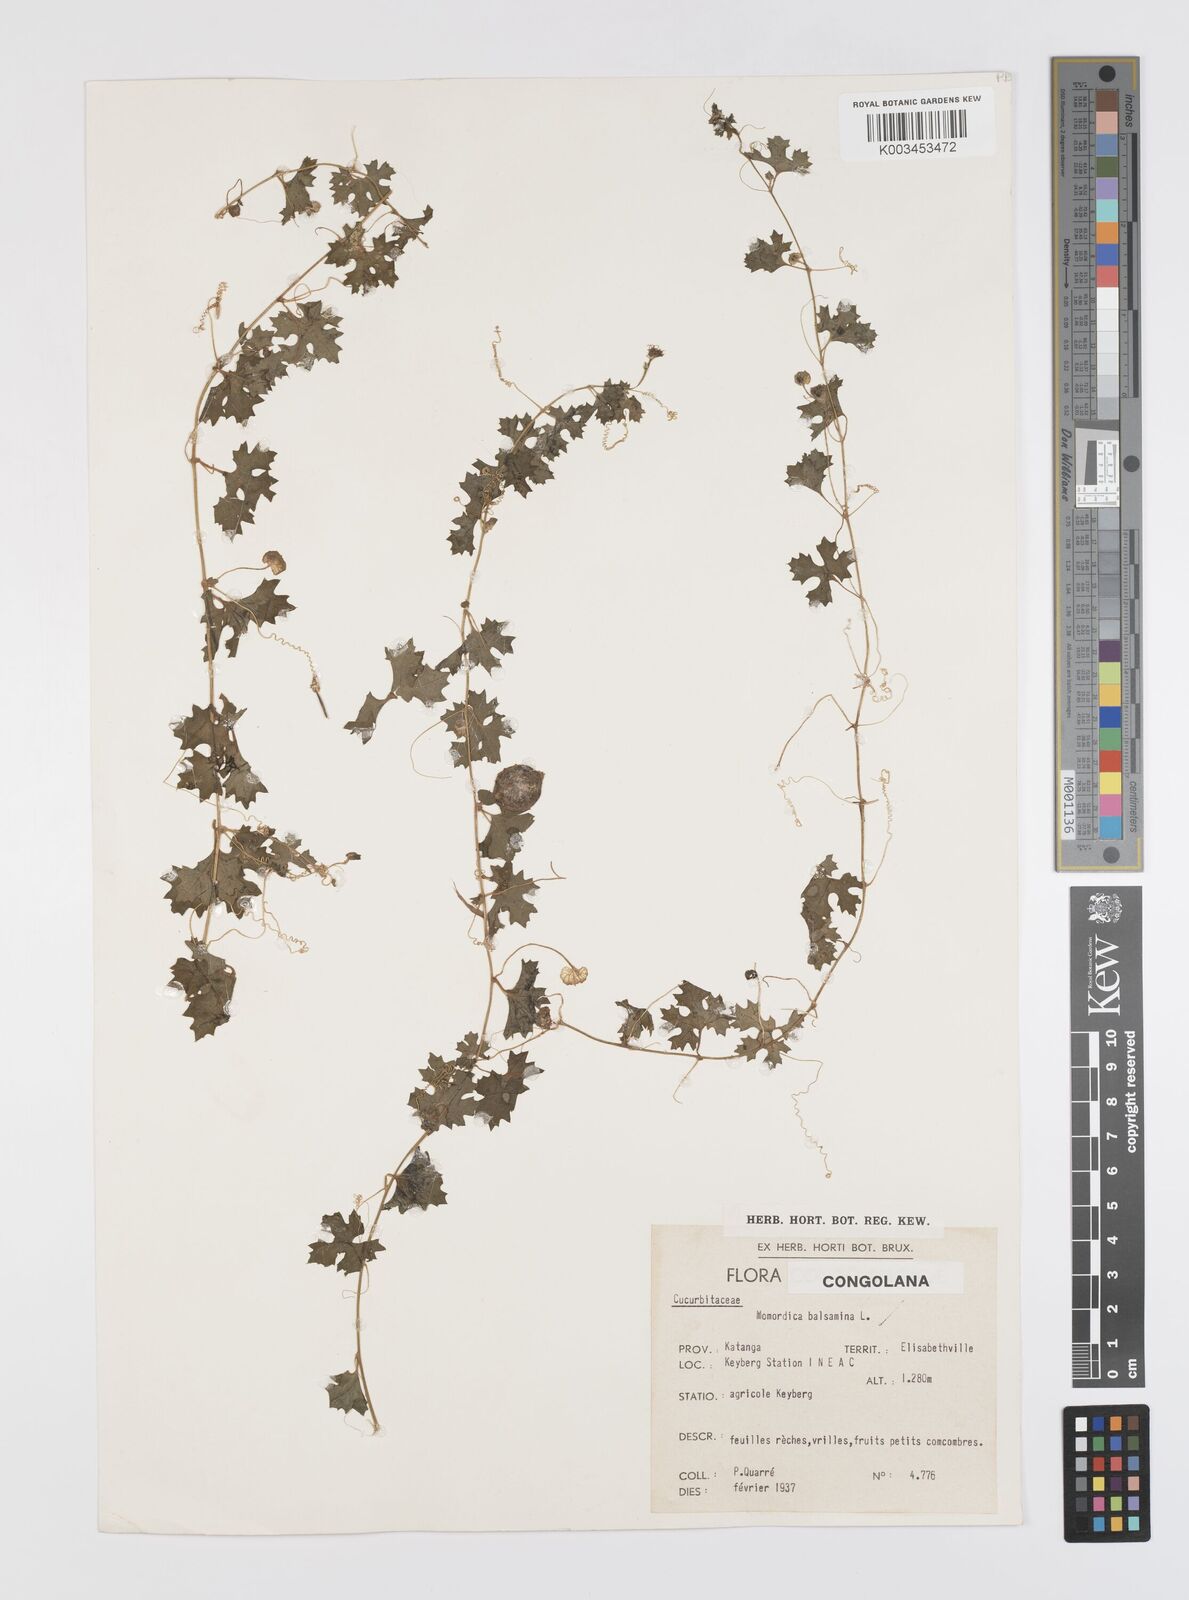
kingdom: Plantae
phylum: Tracheophyta
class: Magnoliopsida
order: Cucurbitales
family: Cucurbitaceae
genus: Momordica
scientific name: Momordica balsamina
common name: Southern balsampear
